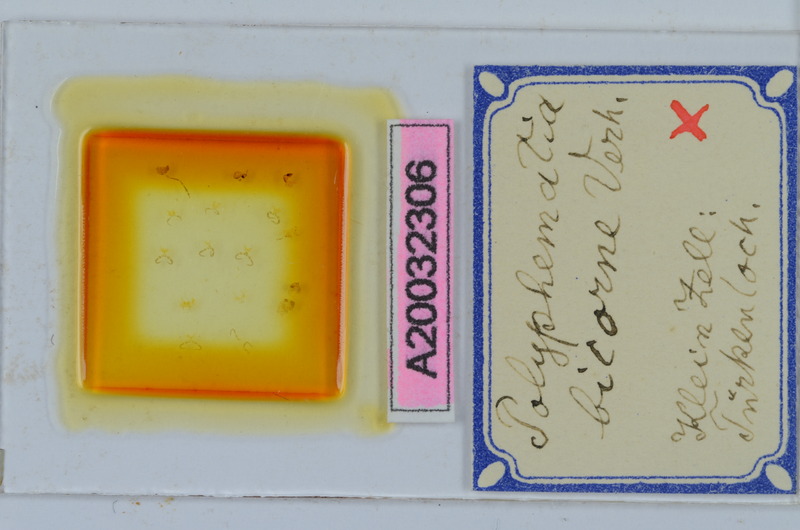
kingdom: Animalia
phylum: Arthropoda
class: Diplopoda
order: Chordeumatida
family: Attemsiidae
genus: Polyphematia
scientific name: Polyphematia moniliformis
